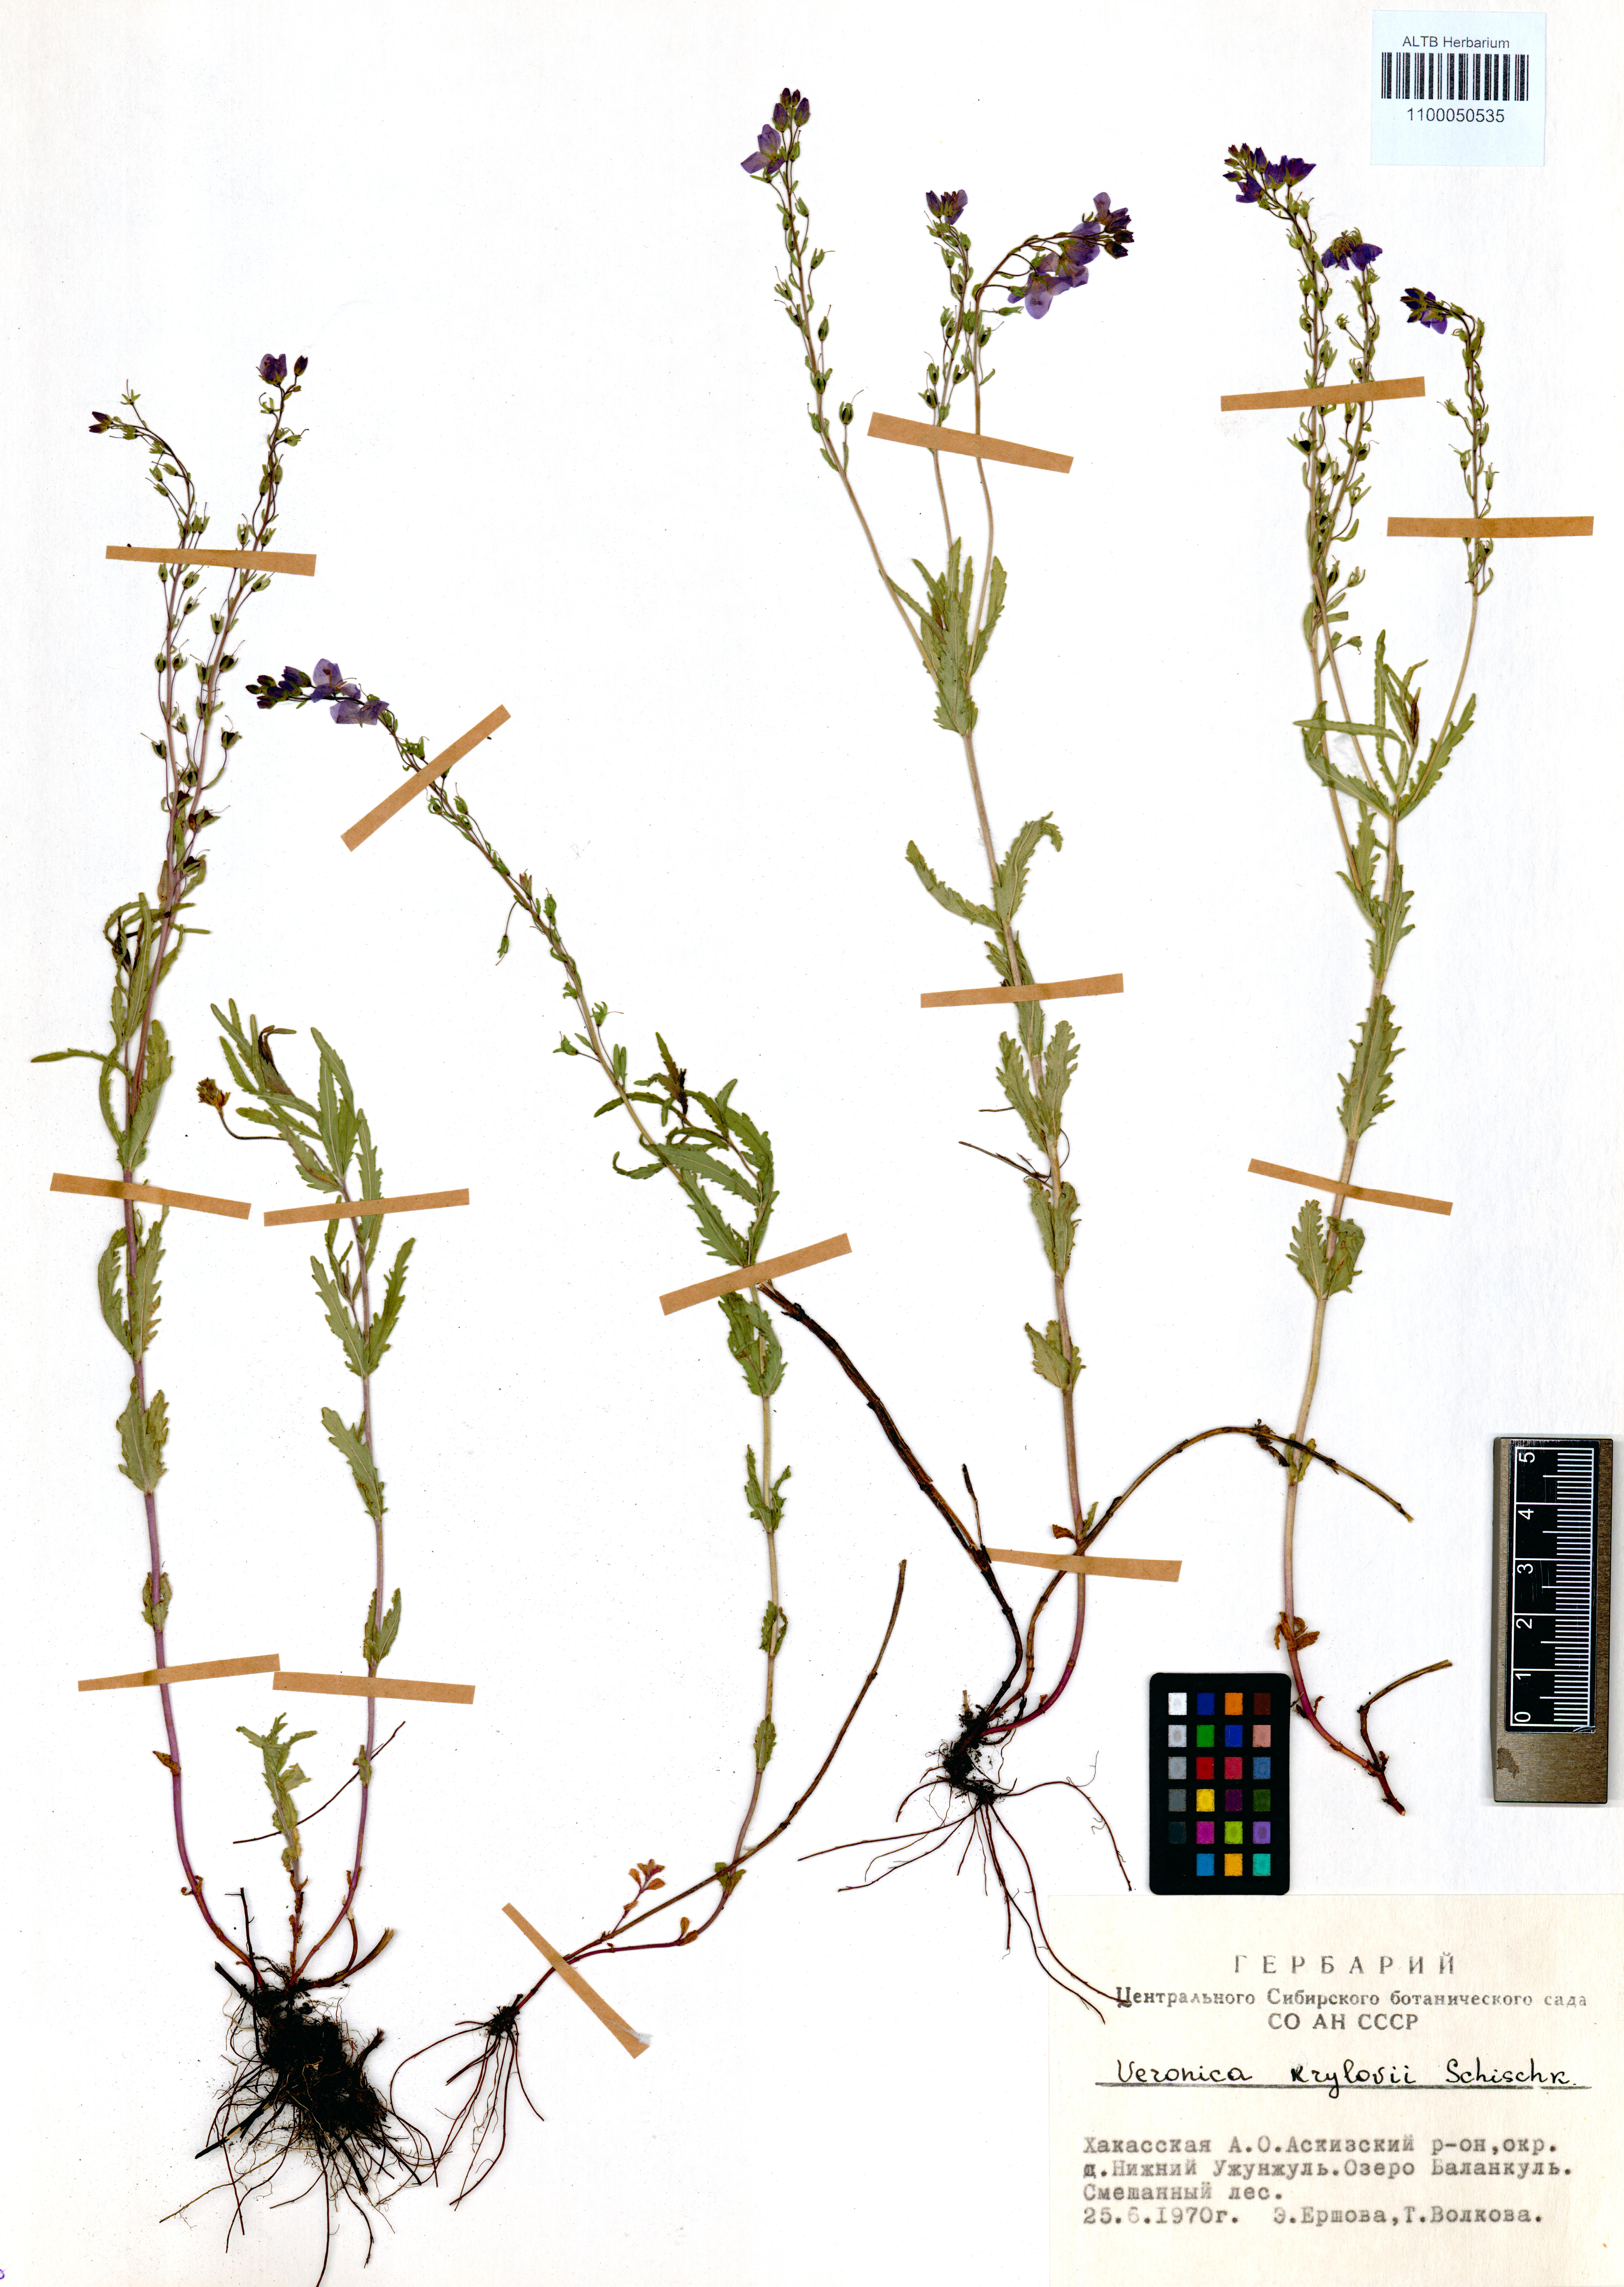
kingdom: Plantae
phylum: Tracheophyta
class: Magnoliopsida
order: Lamiales
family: Plantaginaceae
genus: Veronica
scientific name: Veronica krylovii
